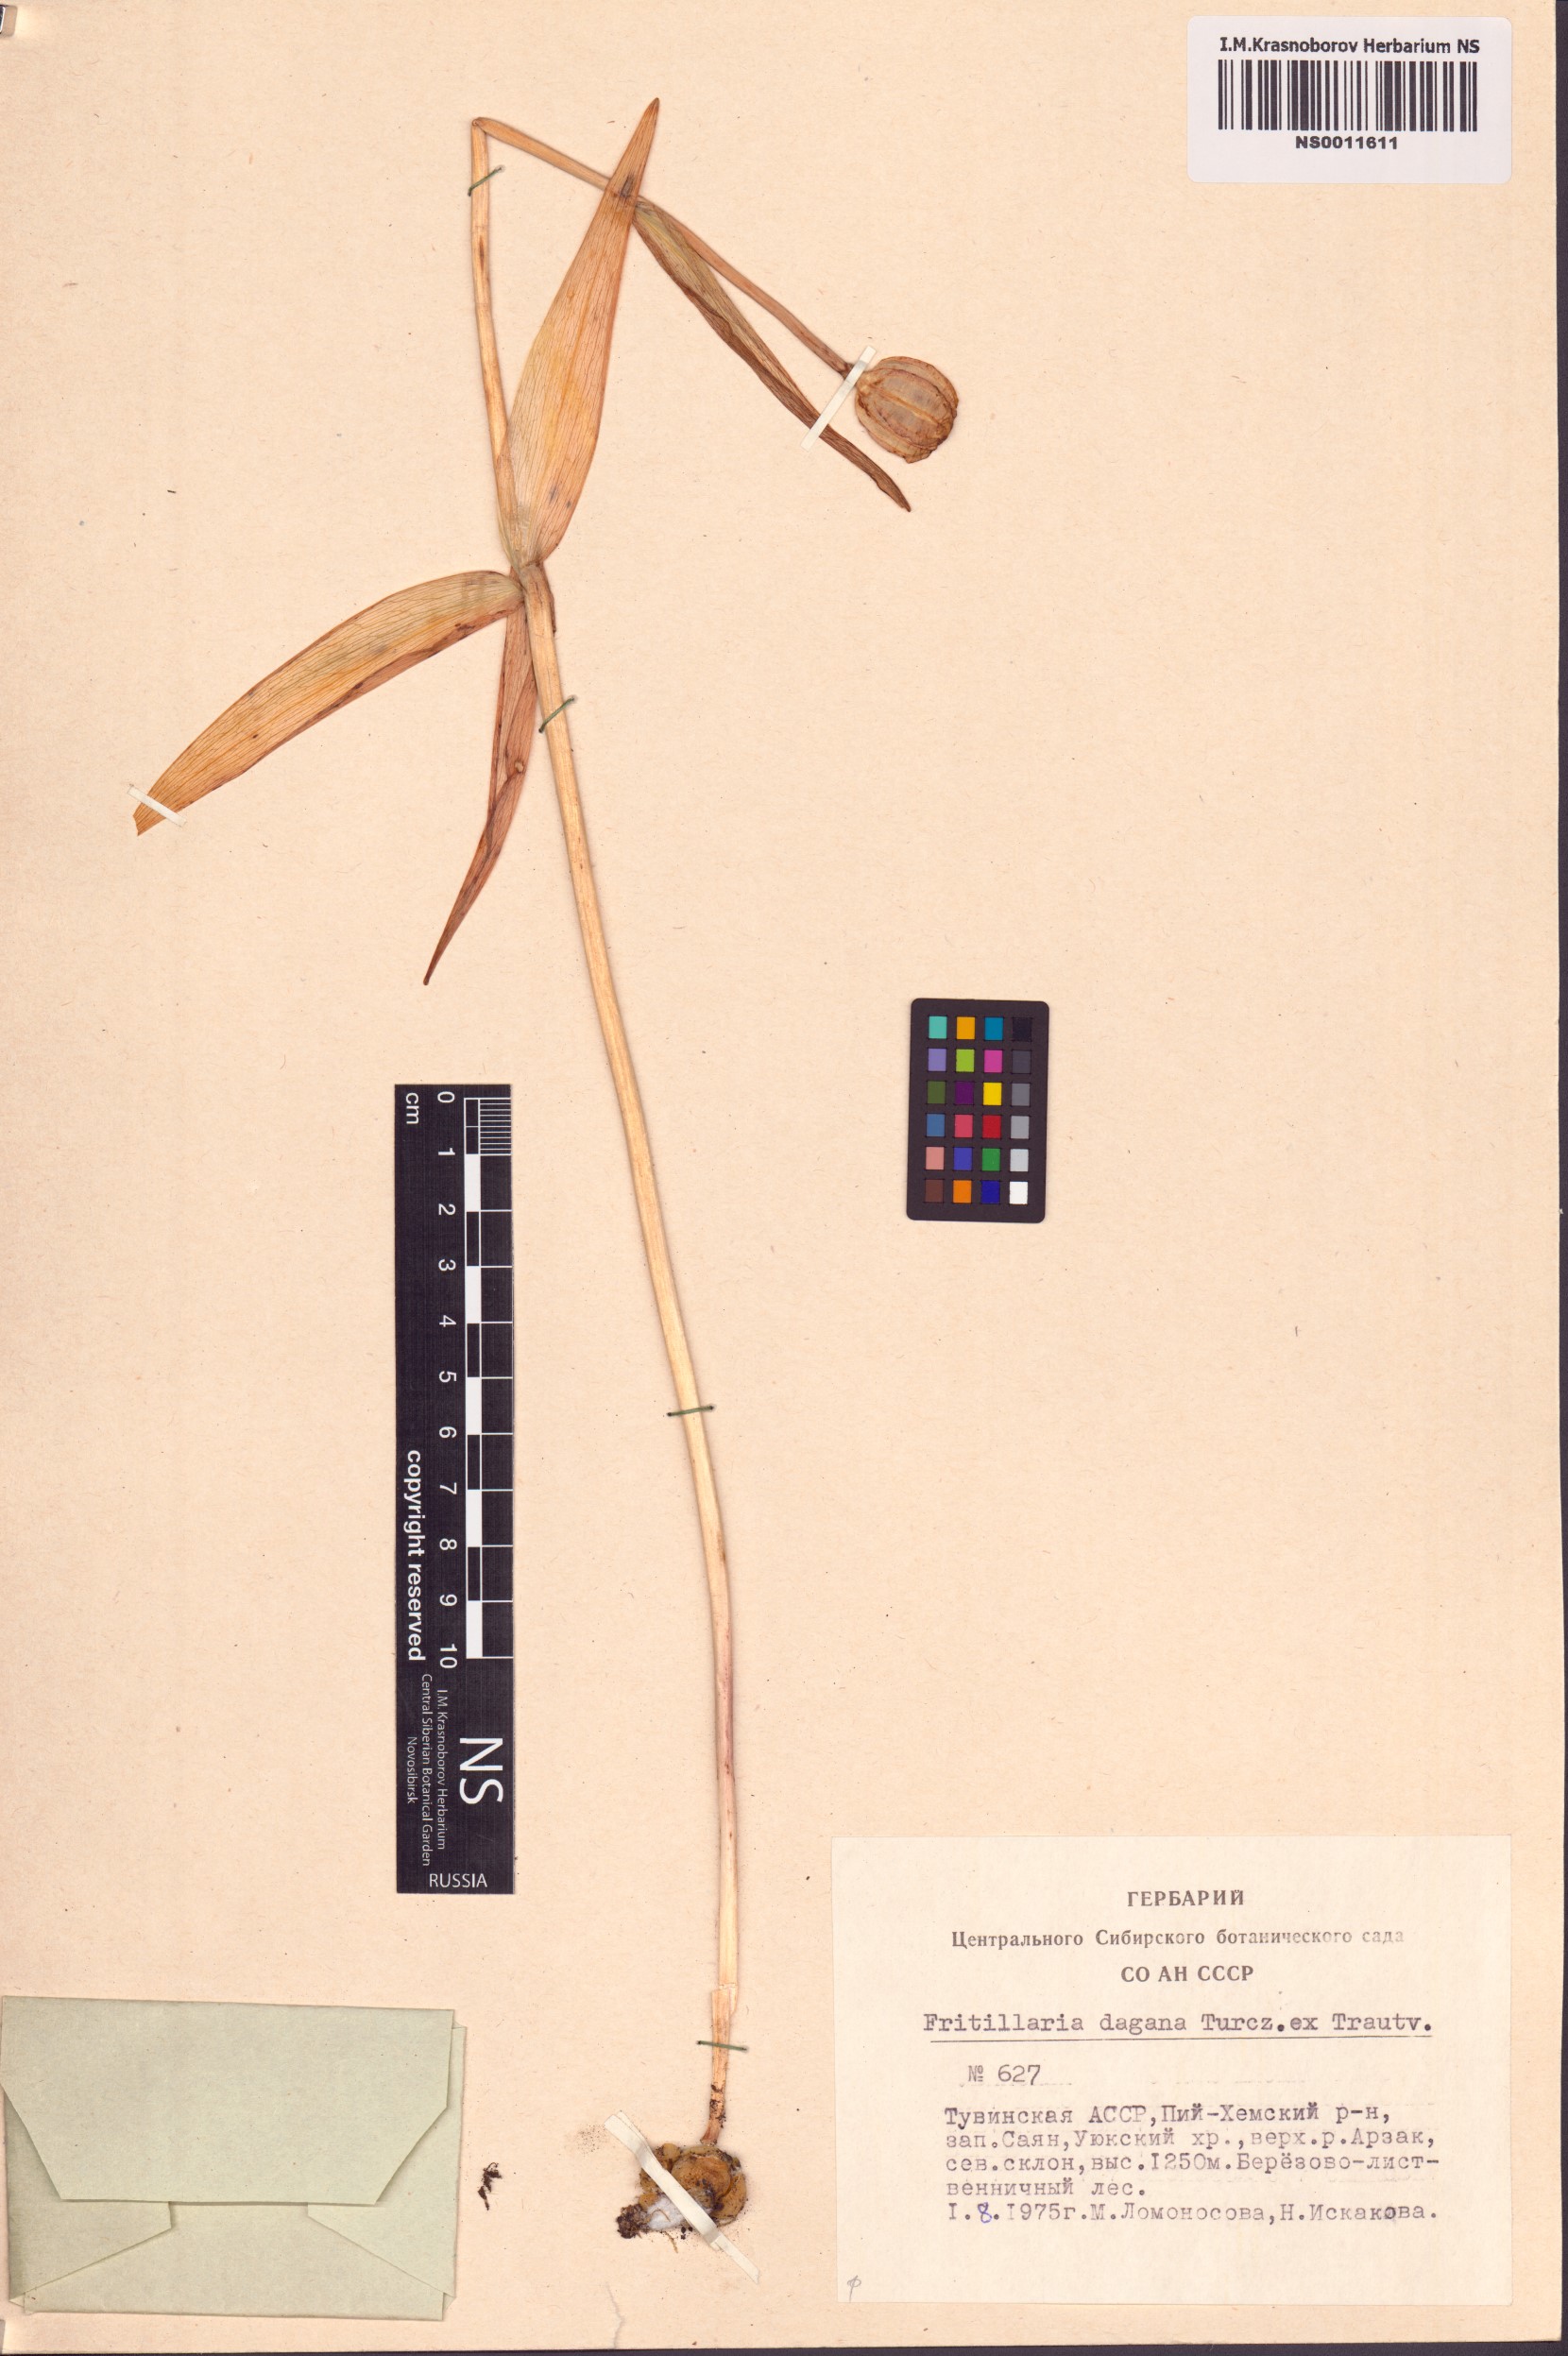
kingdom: Plantae
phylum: Tracheophyta
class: Liliopsida
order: Liliales
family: Liliaceae
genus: Fritillaria
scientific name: Fritillaria dagana
